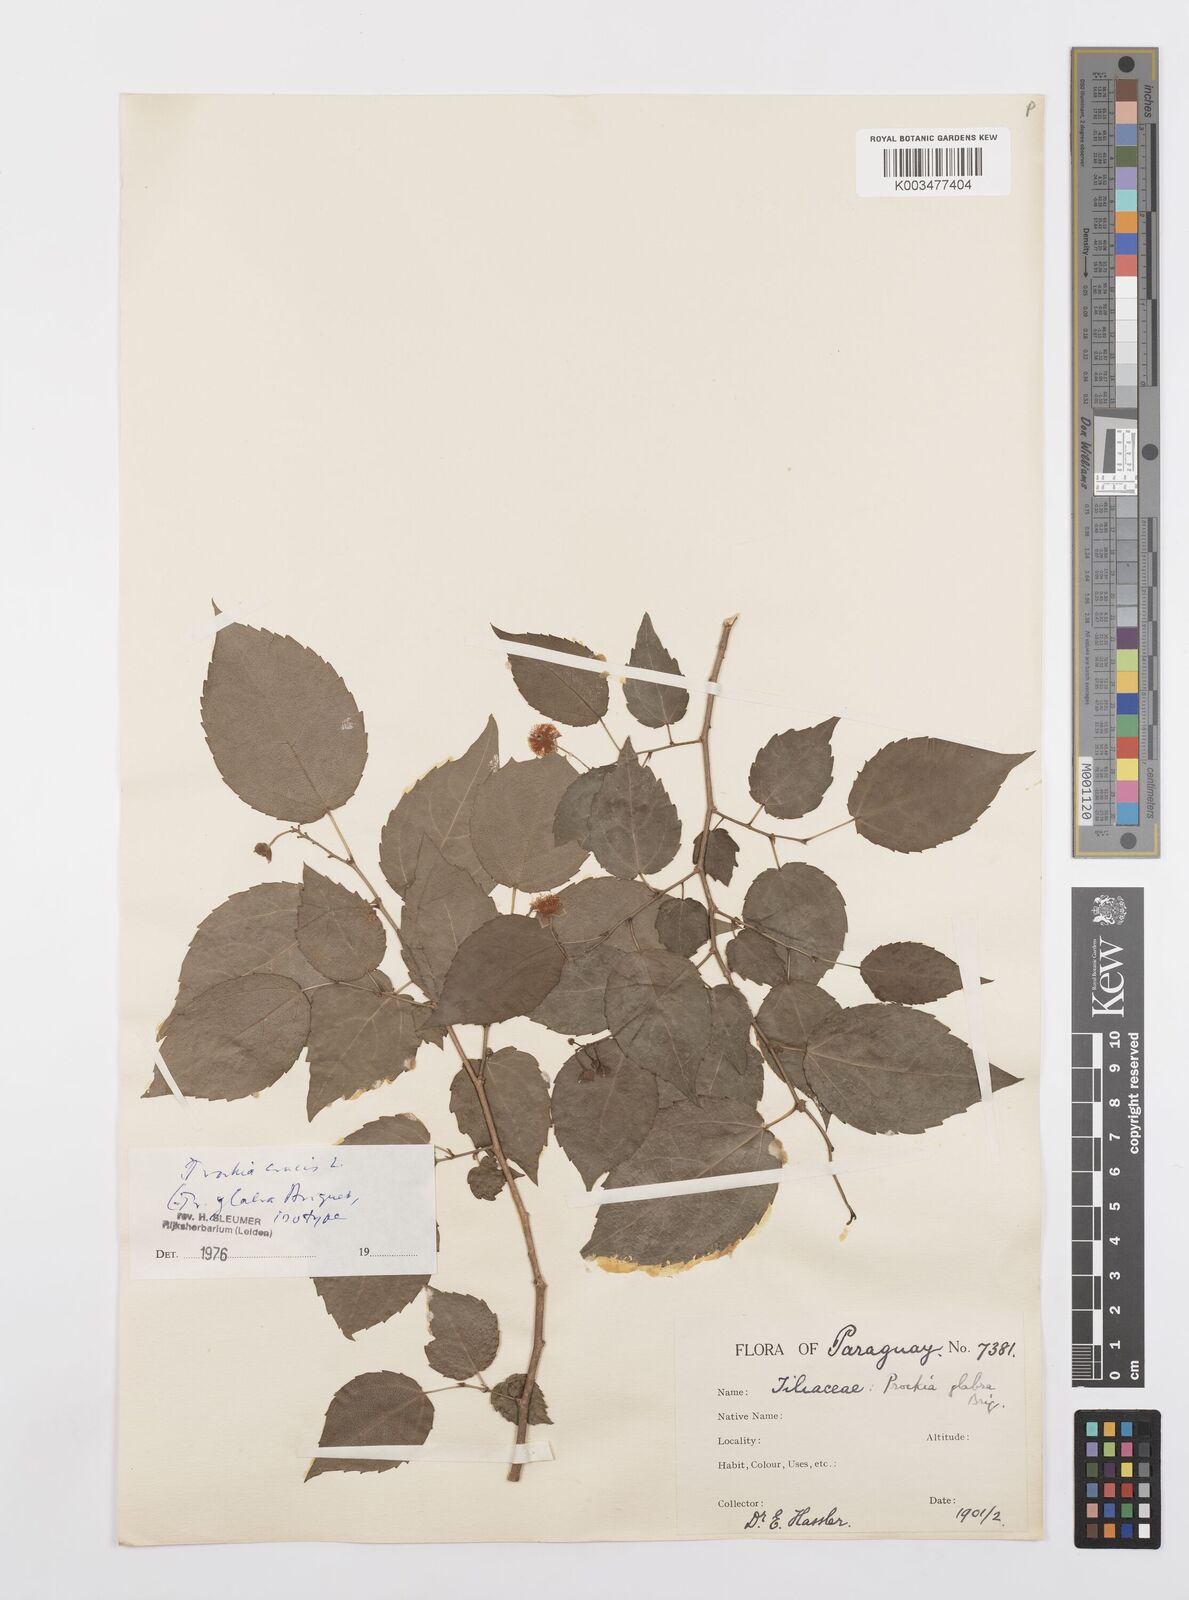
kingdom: Plantae
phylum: Tracheophyta
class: Magnoliopsida
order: Malpighiales
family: Salicaceae
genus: Prockia
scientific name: Prockia crucis
